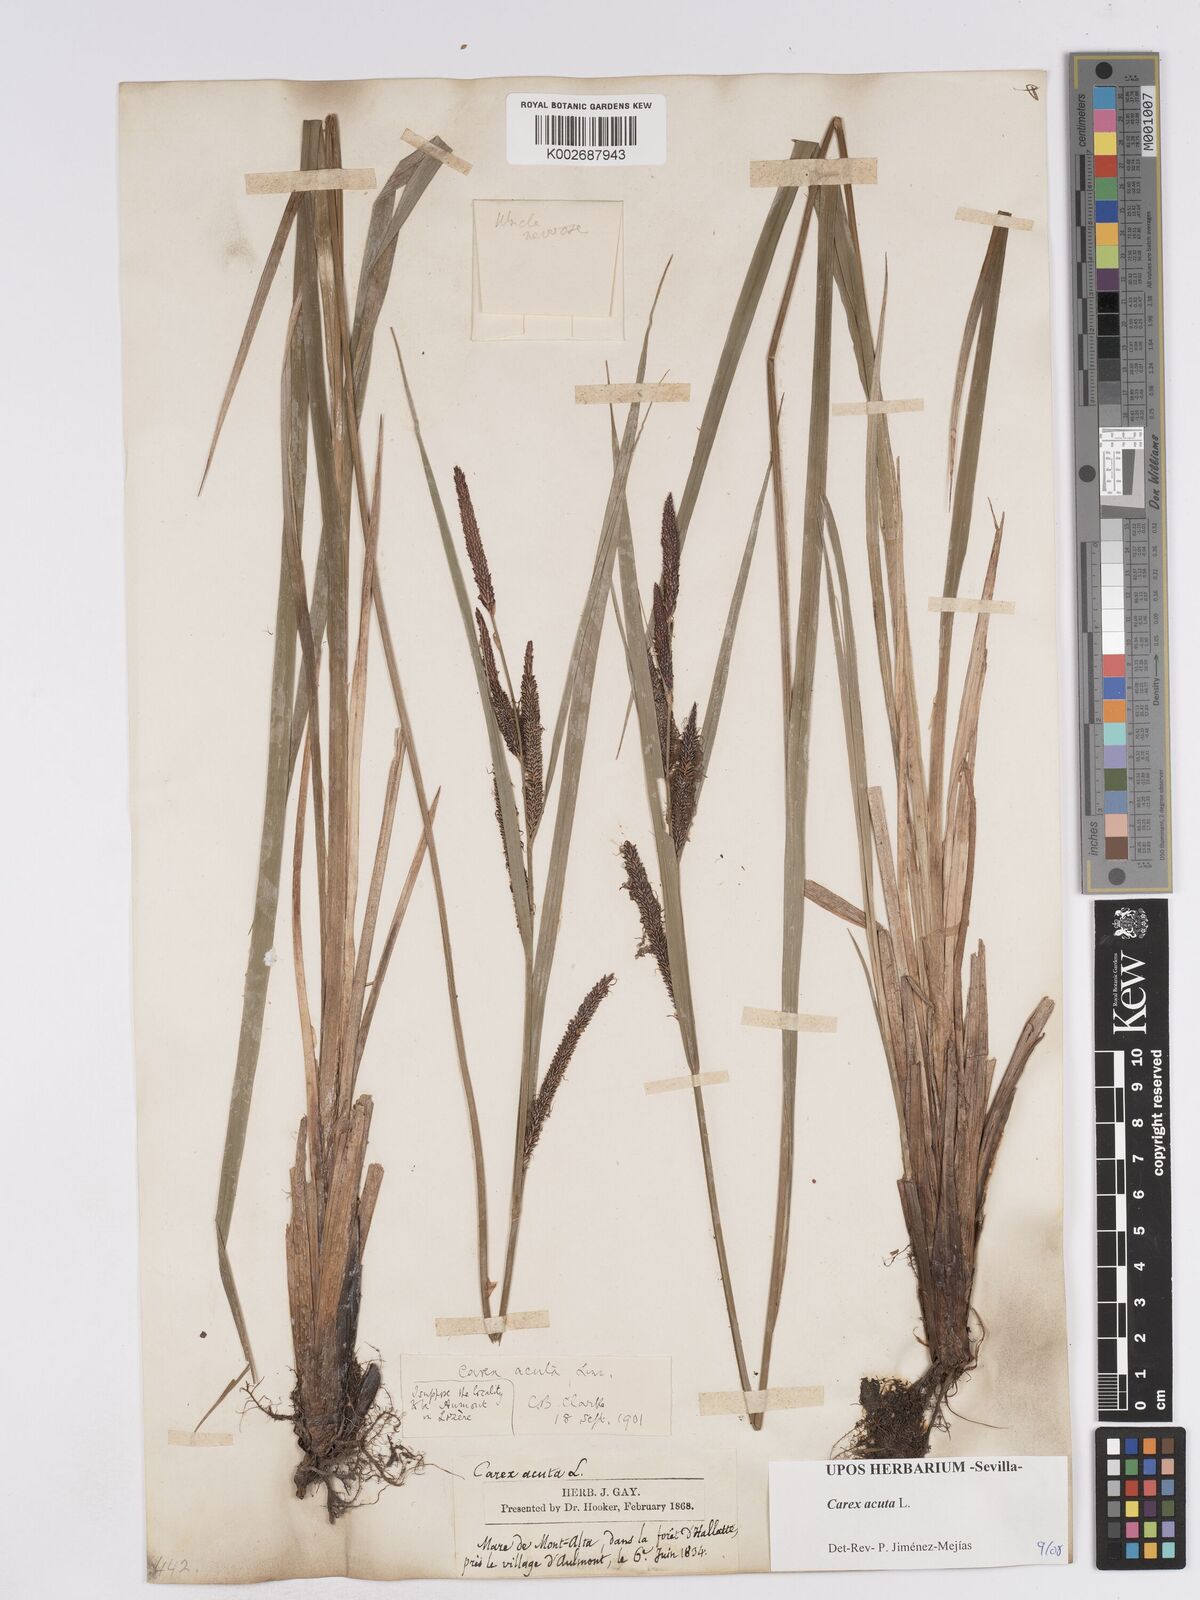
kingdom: Plantae
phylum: Tracheophyta
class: Liliopsida
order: Poales
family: Cyperaceae
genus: Carex
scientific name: Carex acuta
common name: Slender tufted-sedge
